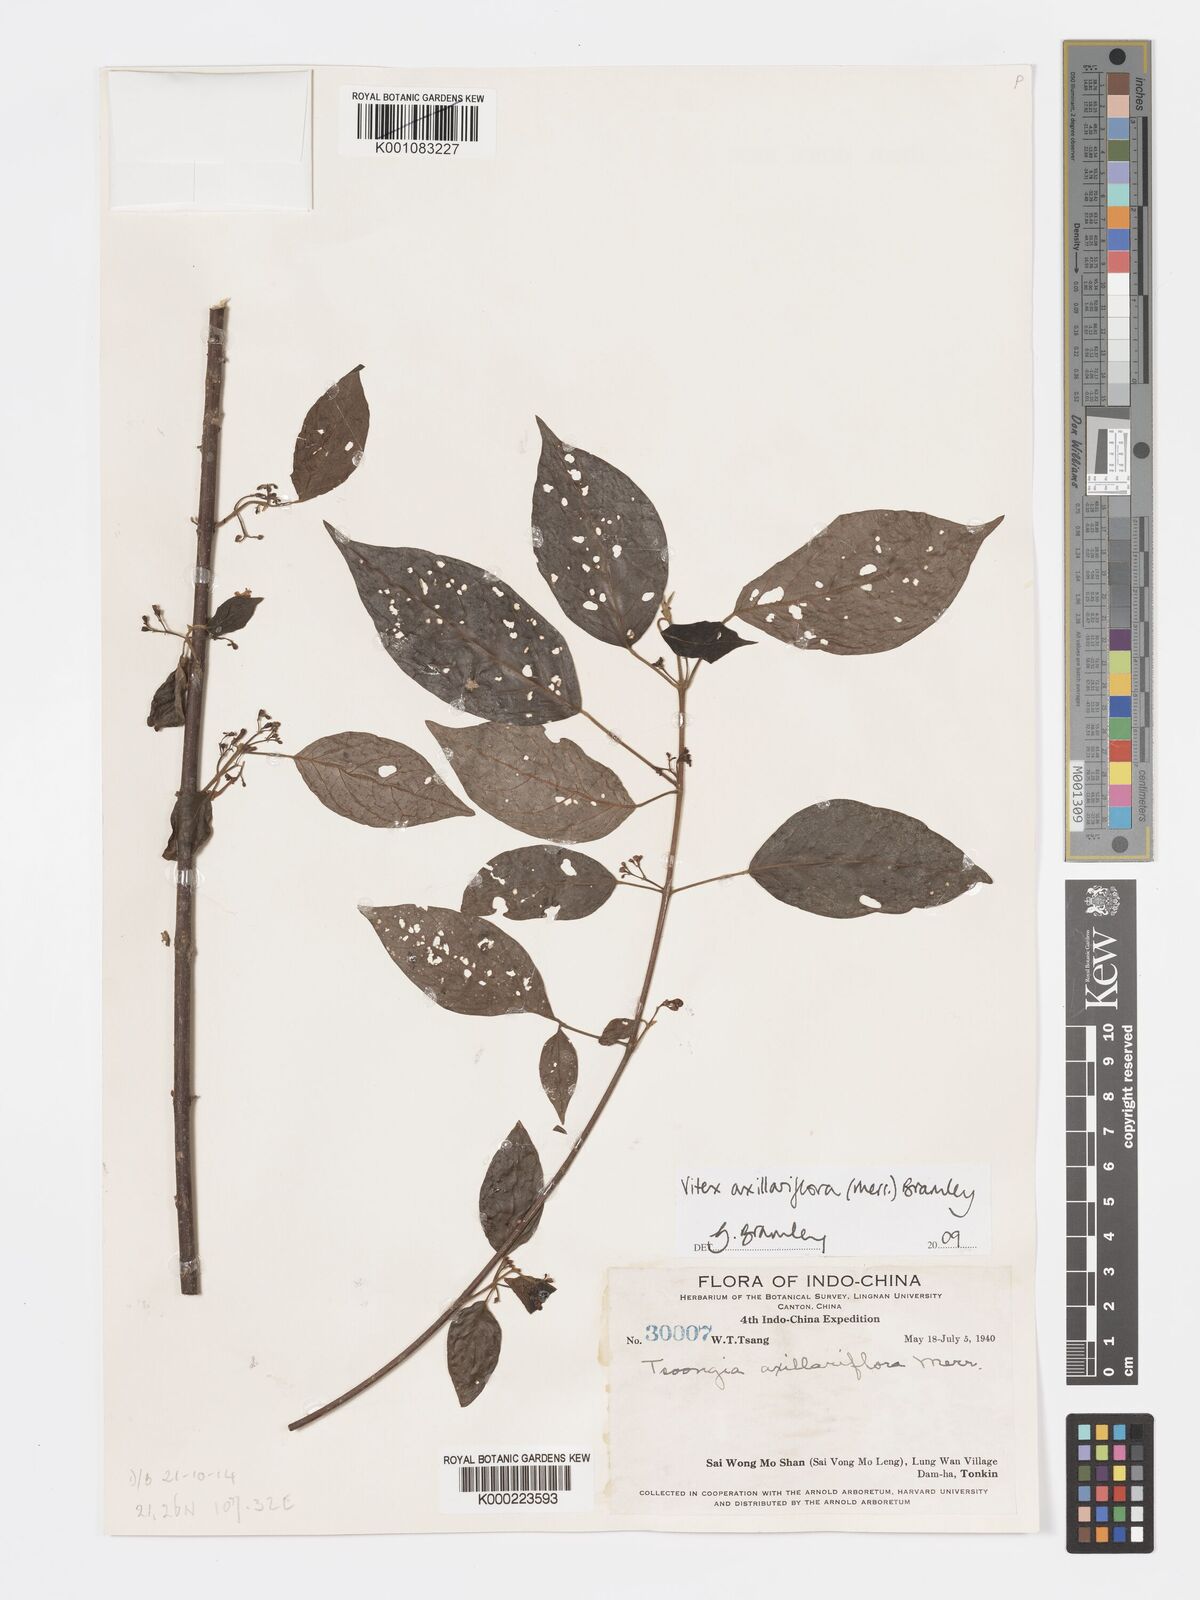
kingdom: Plantae
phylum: Tracheophyta
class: Magnoliopsida
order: Lamiales
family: Lamiaceae
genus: Vitex
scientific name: Vitex axillariflora
